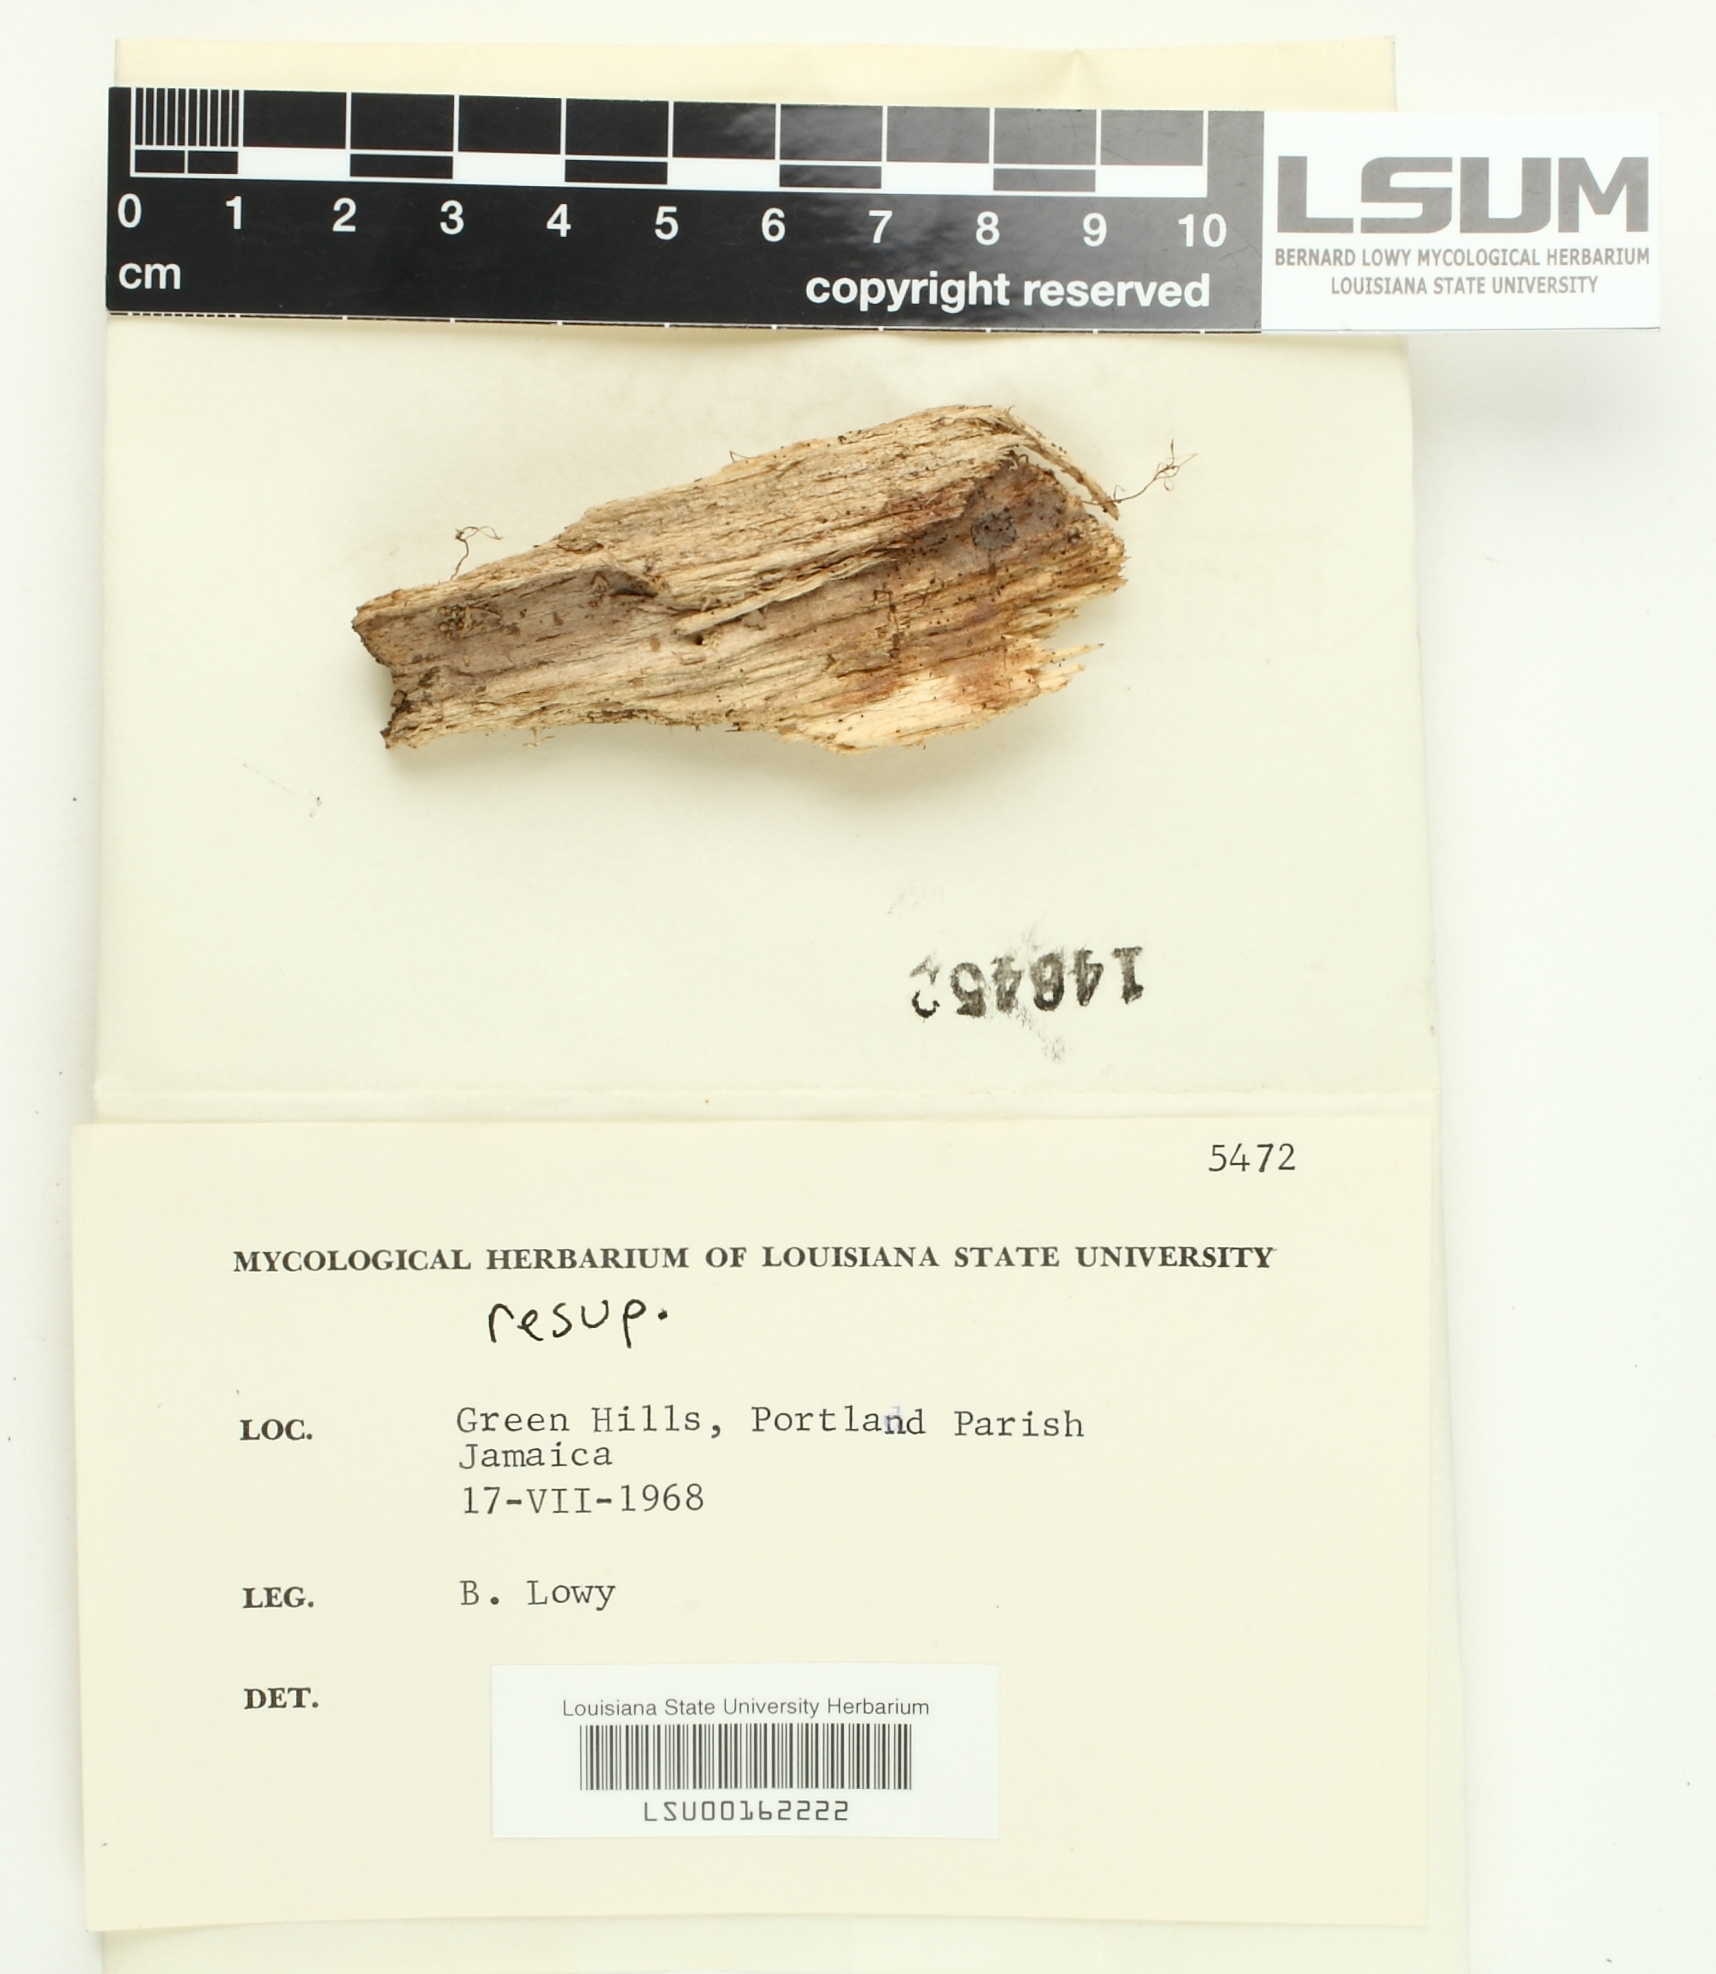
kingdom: Fungi
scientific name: Fungi
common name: Fungi
